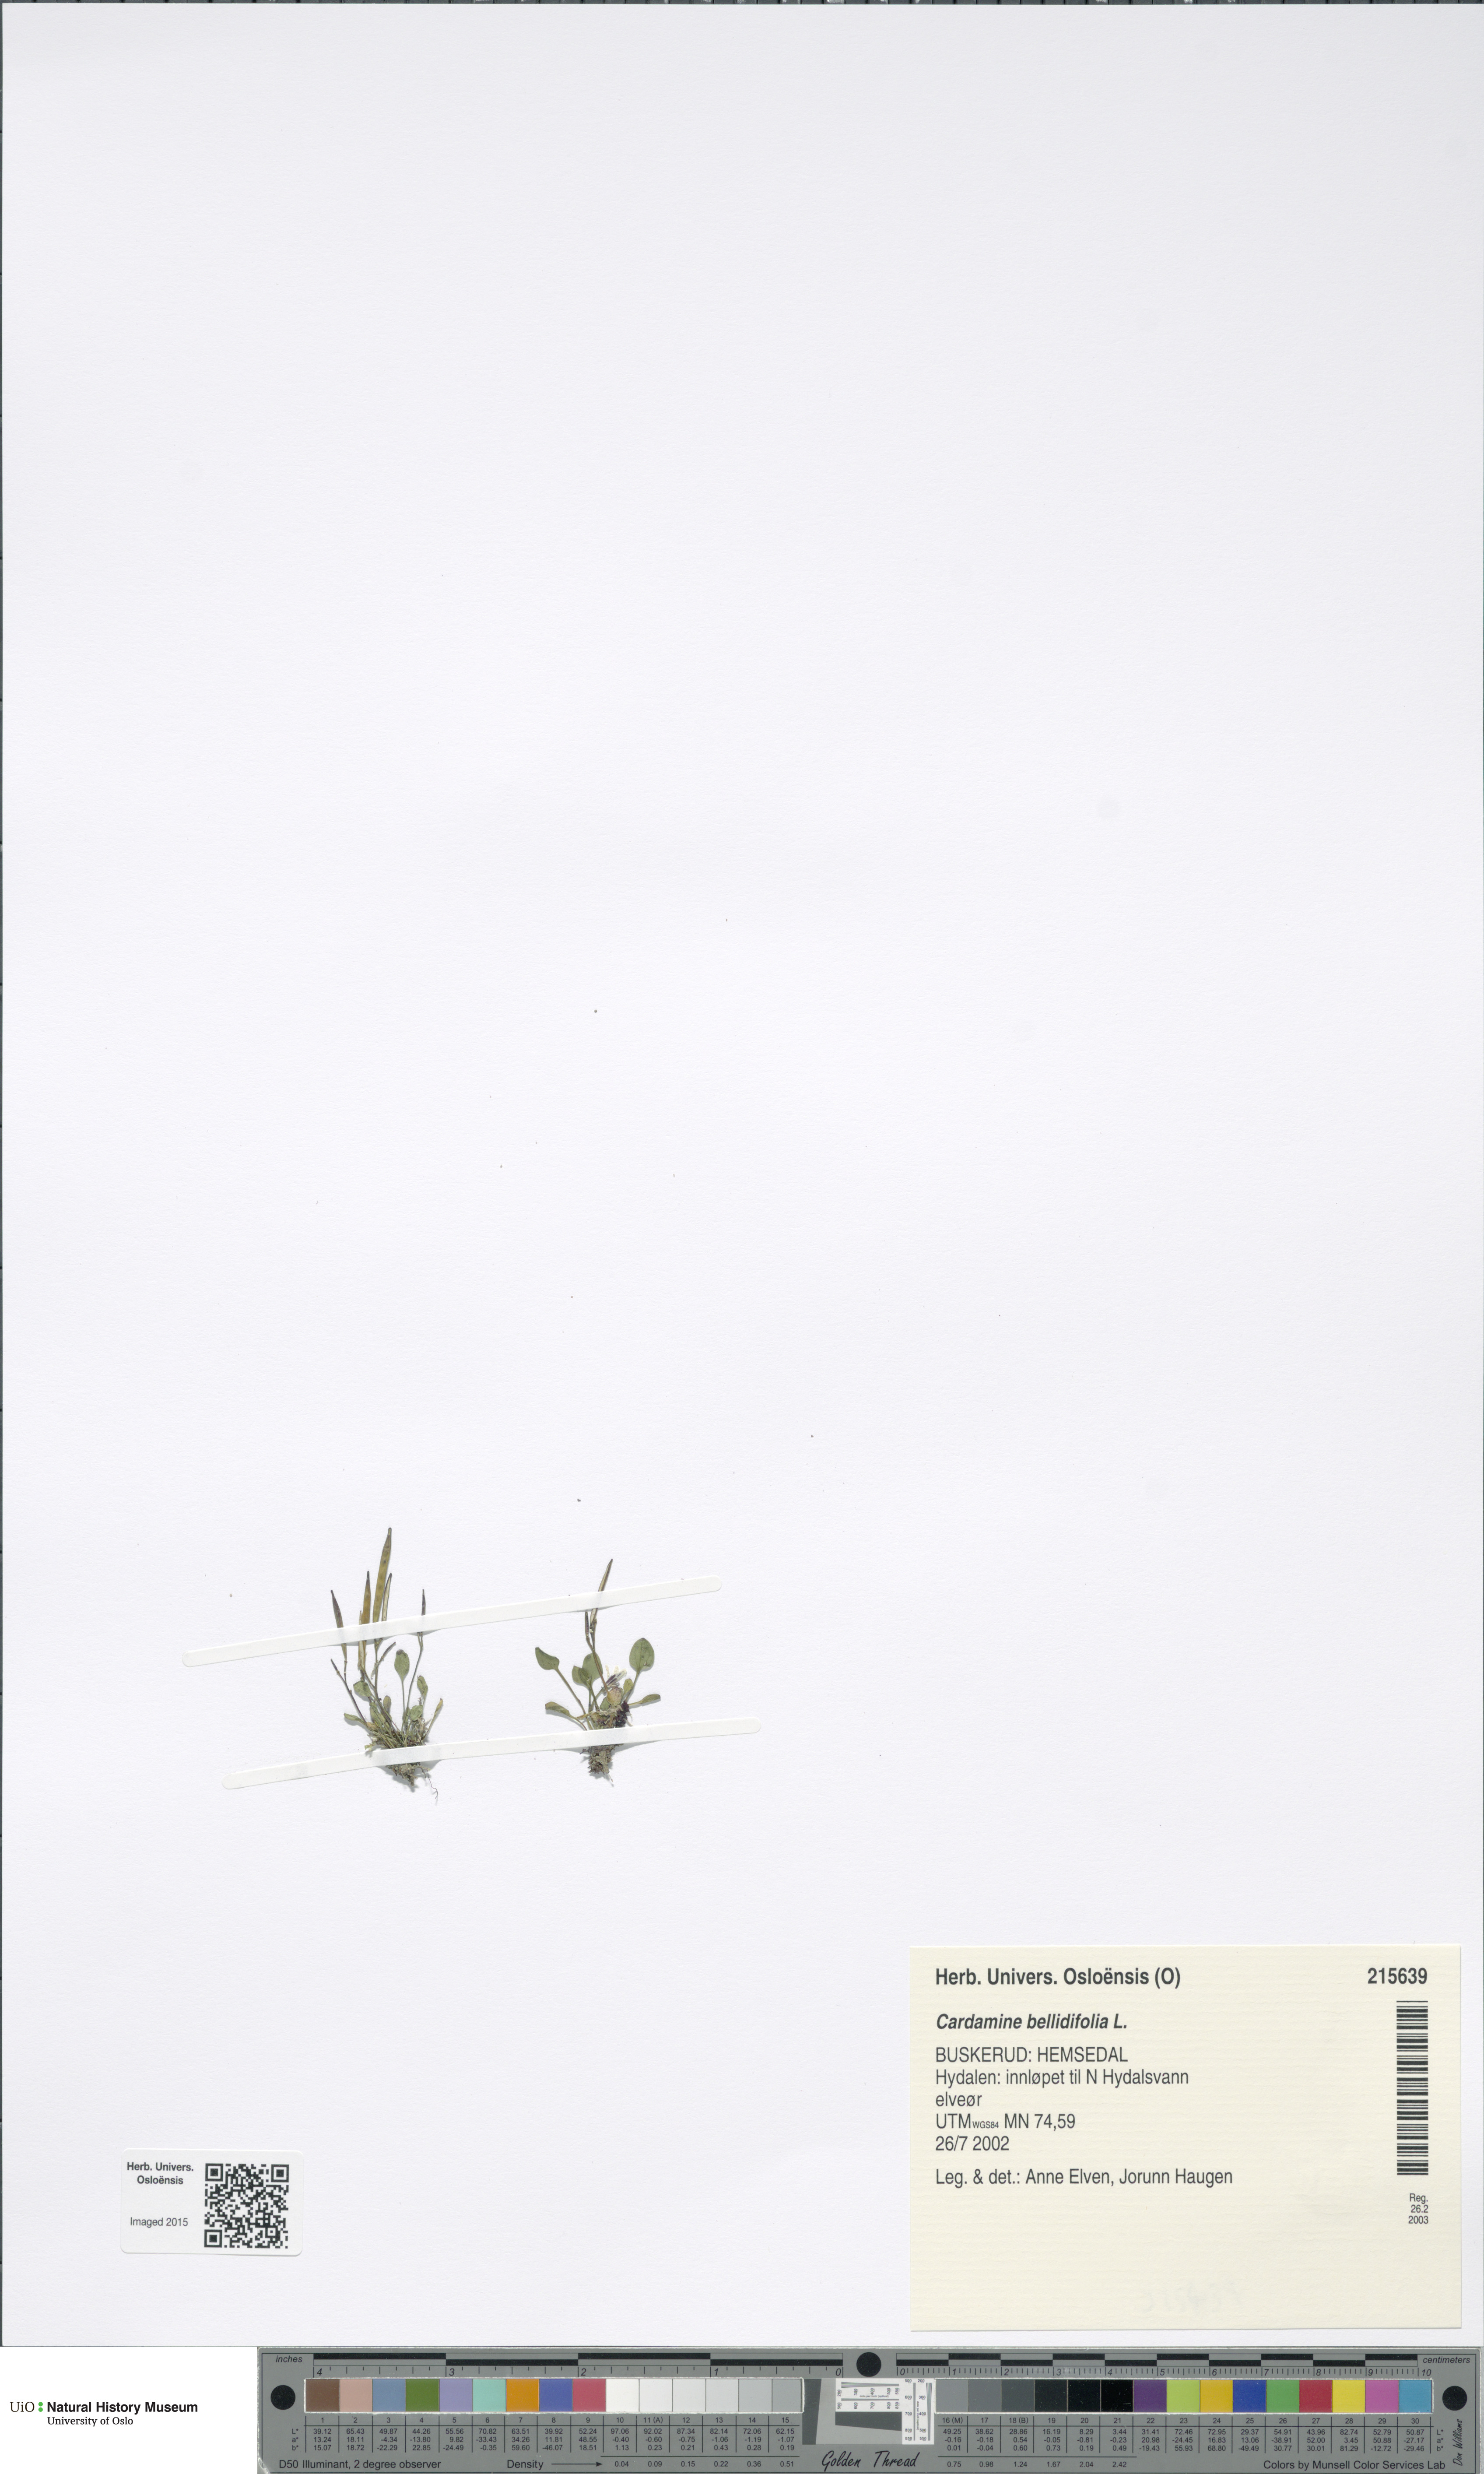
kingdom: Plantae
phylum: Tracheophyta
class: Magnoliopsida
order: Brassicales
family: Brassicaceae
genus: Cardamine
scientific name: Cardamine bellidifolia
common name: Alpine bittercress
